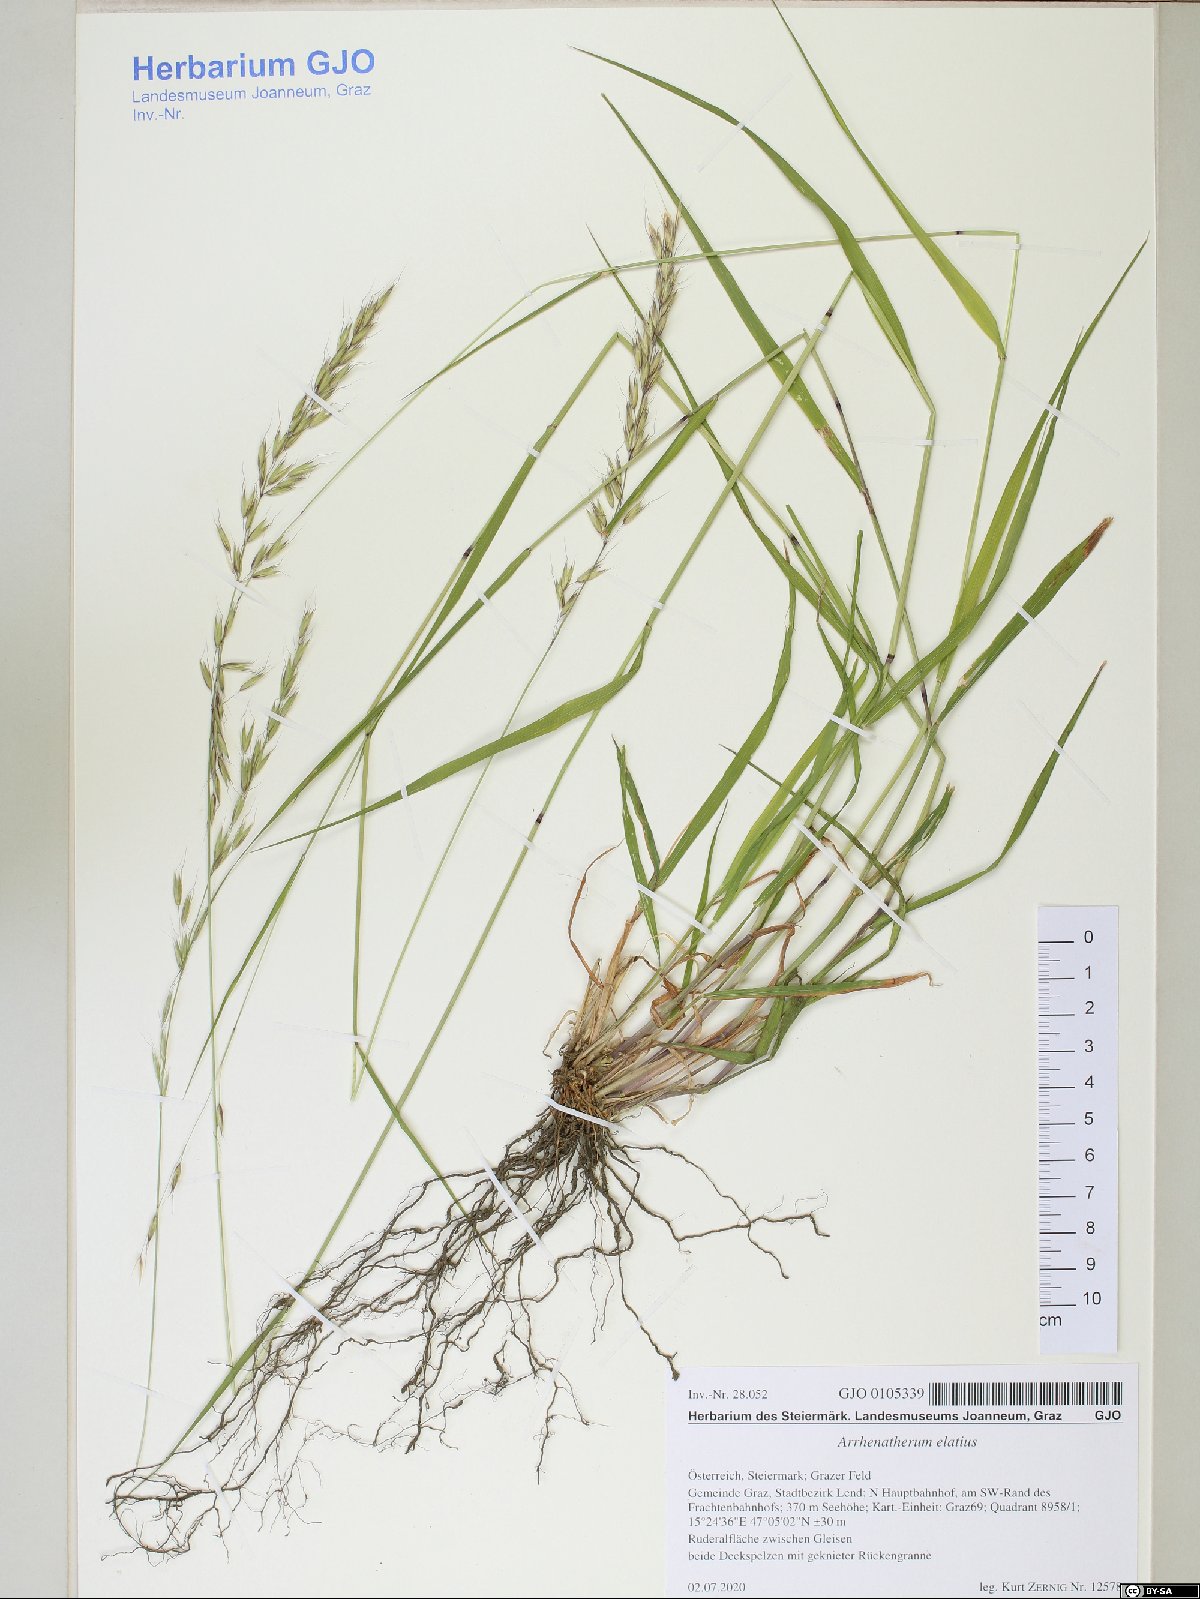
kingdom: Plantae
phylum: Tracheophyta
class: Liliopsida
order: Poales
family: Poaceae
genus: Arrhenatherum
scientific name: Arrhenatherum elatius
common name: Tall oatgrass
